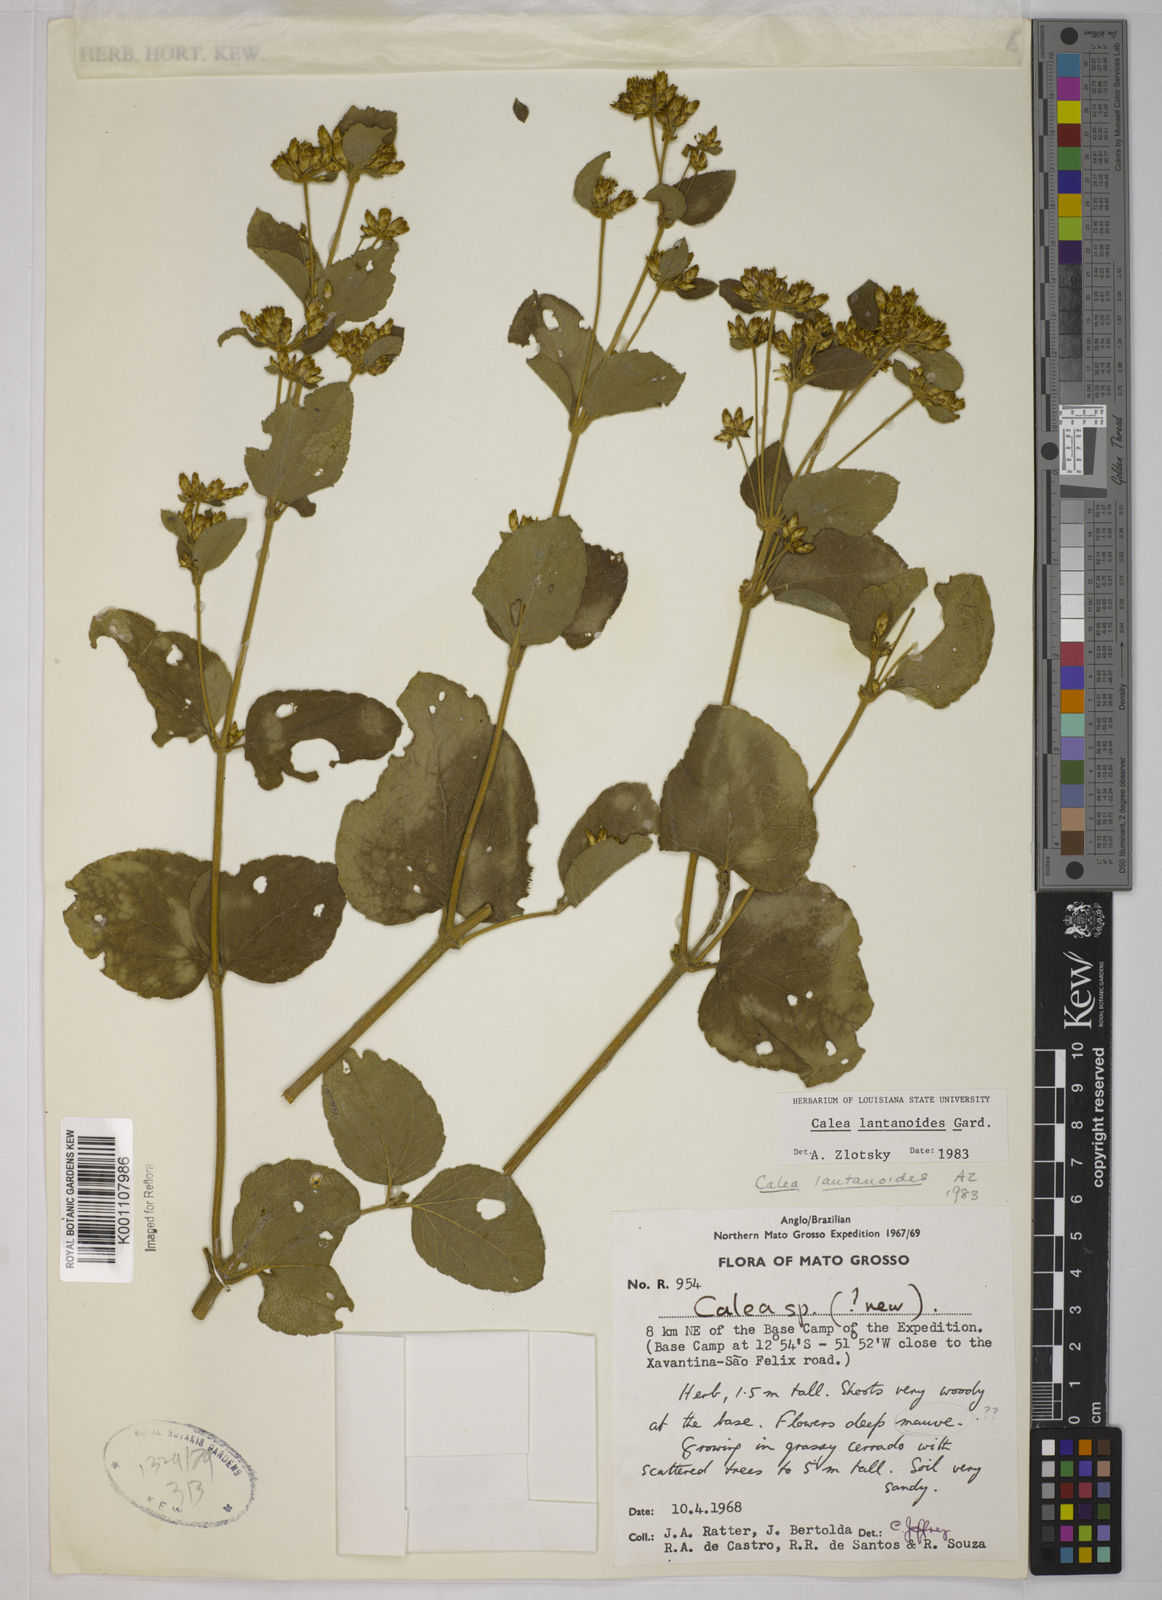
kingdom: Plantae
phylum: Tracheophyta
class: Magnoliopsida
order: Asterales
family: Asteraceae
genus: Calea
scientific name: Calea lantanoides
